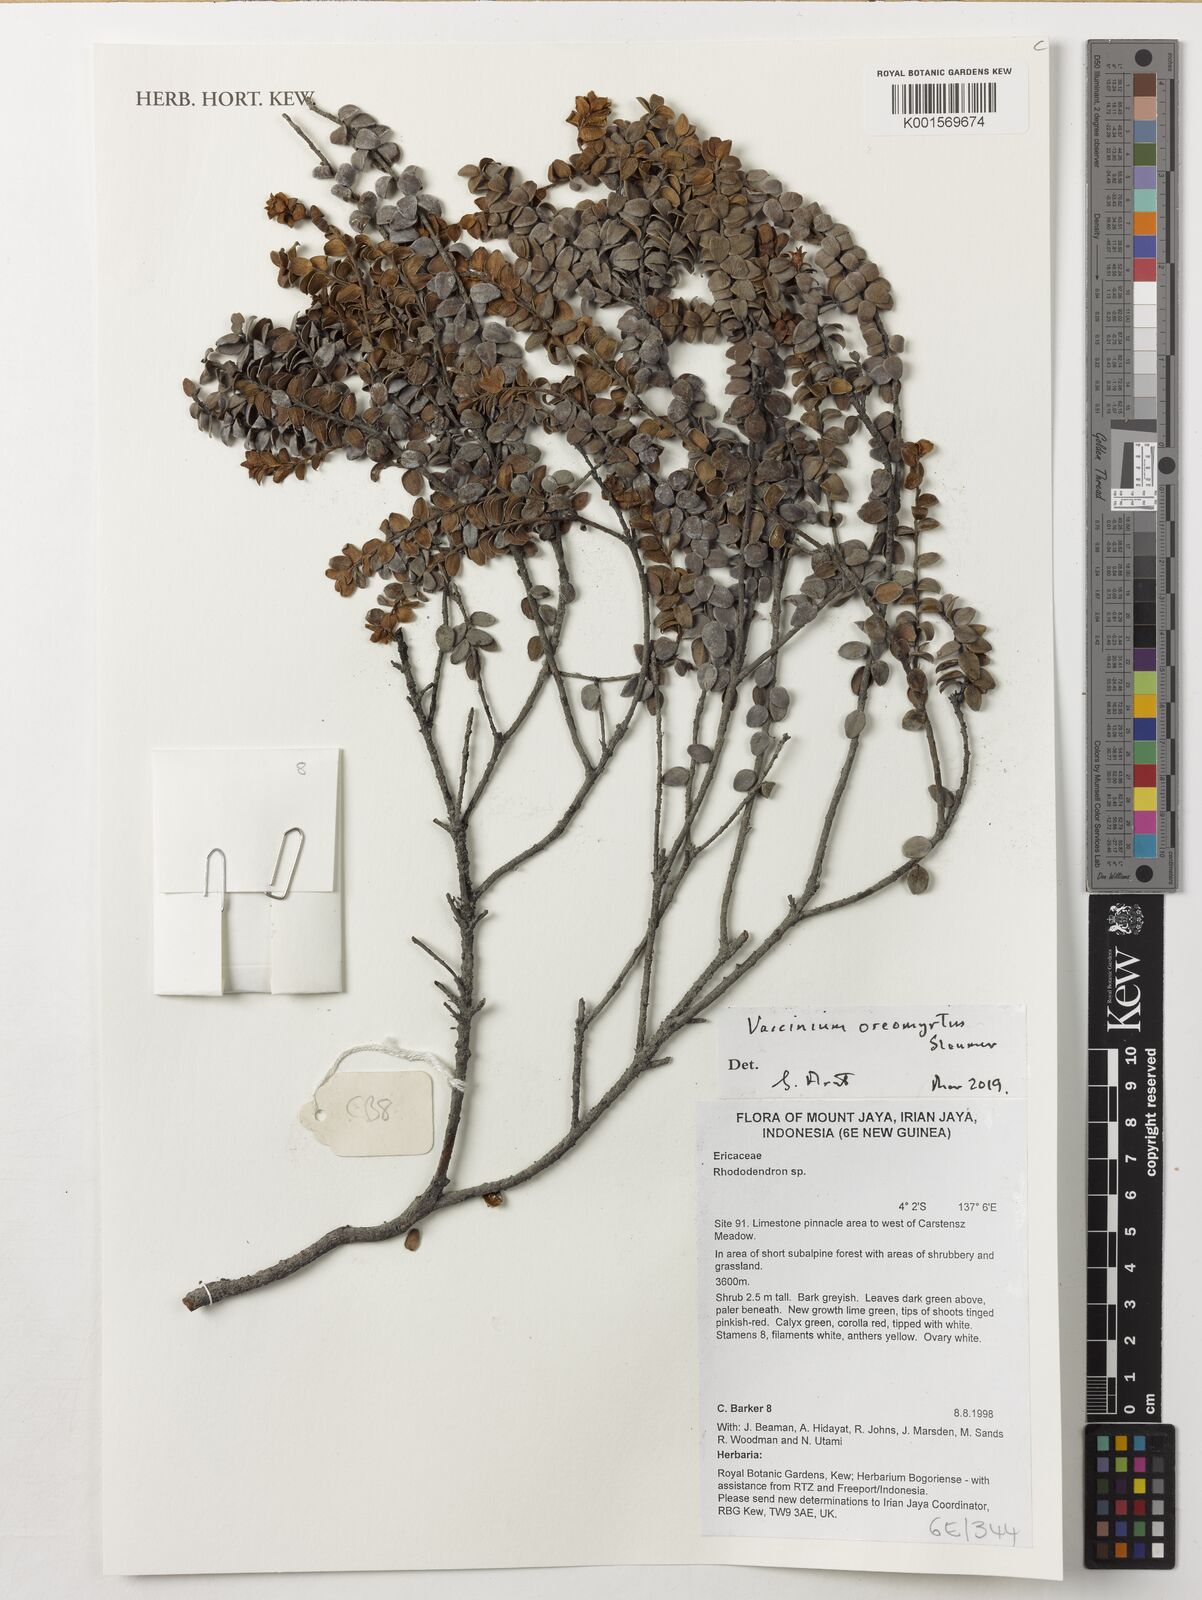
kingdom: Plantae
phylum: Tracheophyta
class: Magnoliopsida
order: Ericales
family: Ericaceae
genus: Vaccinium
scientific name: Vaccinium oreomyrtus
